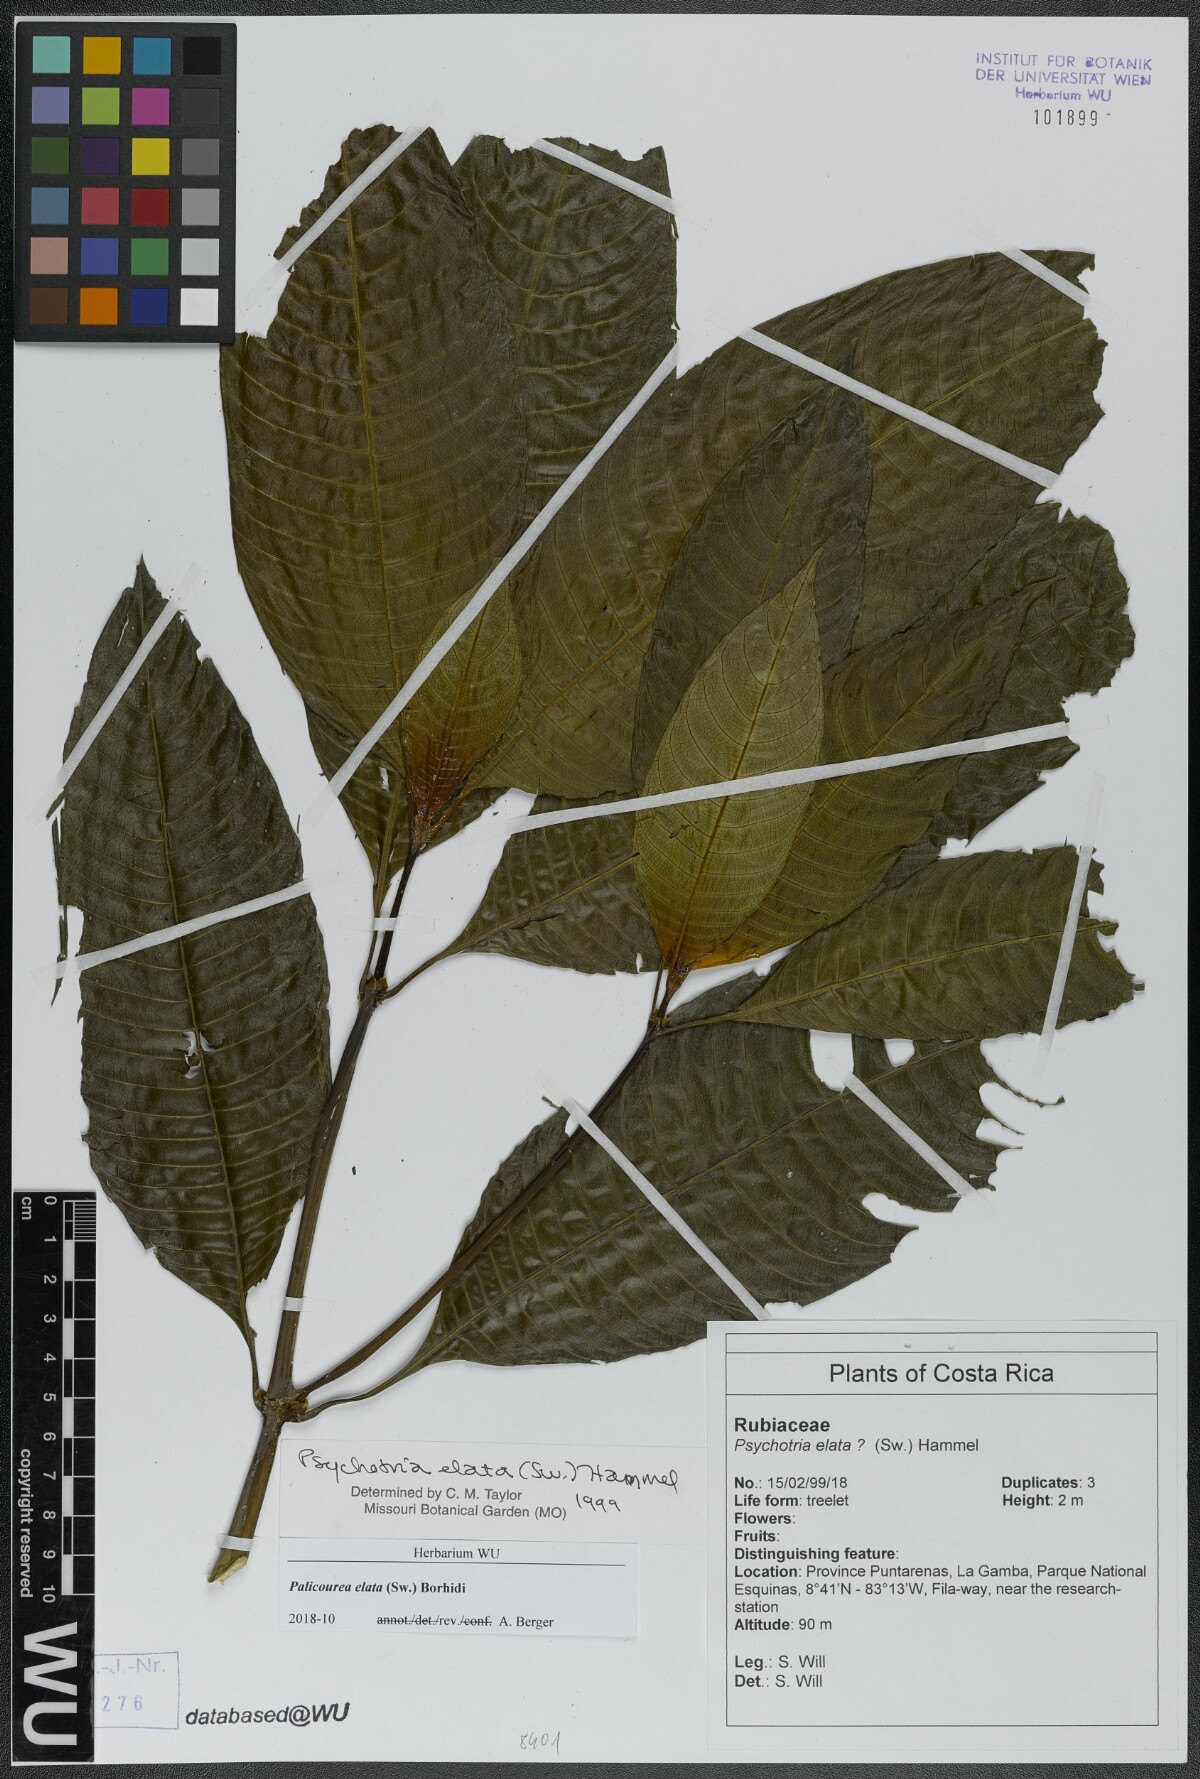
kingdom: Plantae
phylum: Tracheophyta
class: Magnoliopsida
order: Gentianales
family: Rubiaceae
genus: Palicourea
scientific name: Palicourea elata
